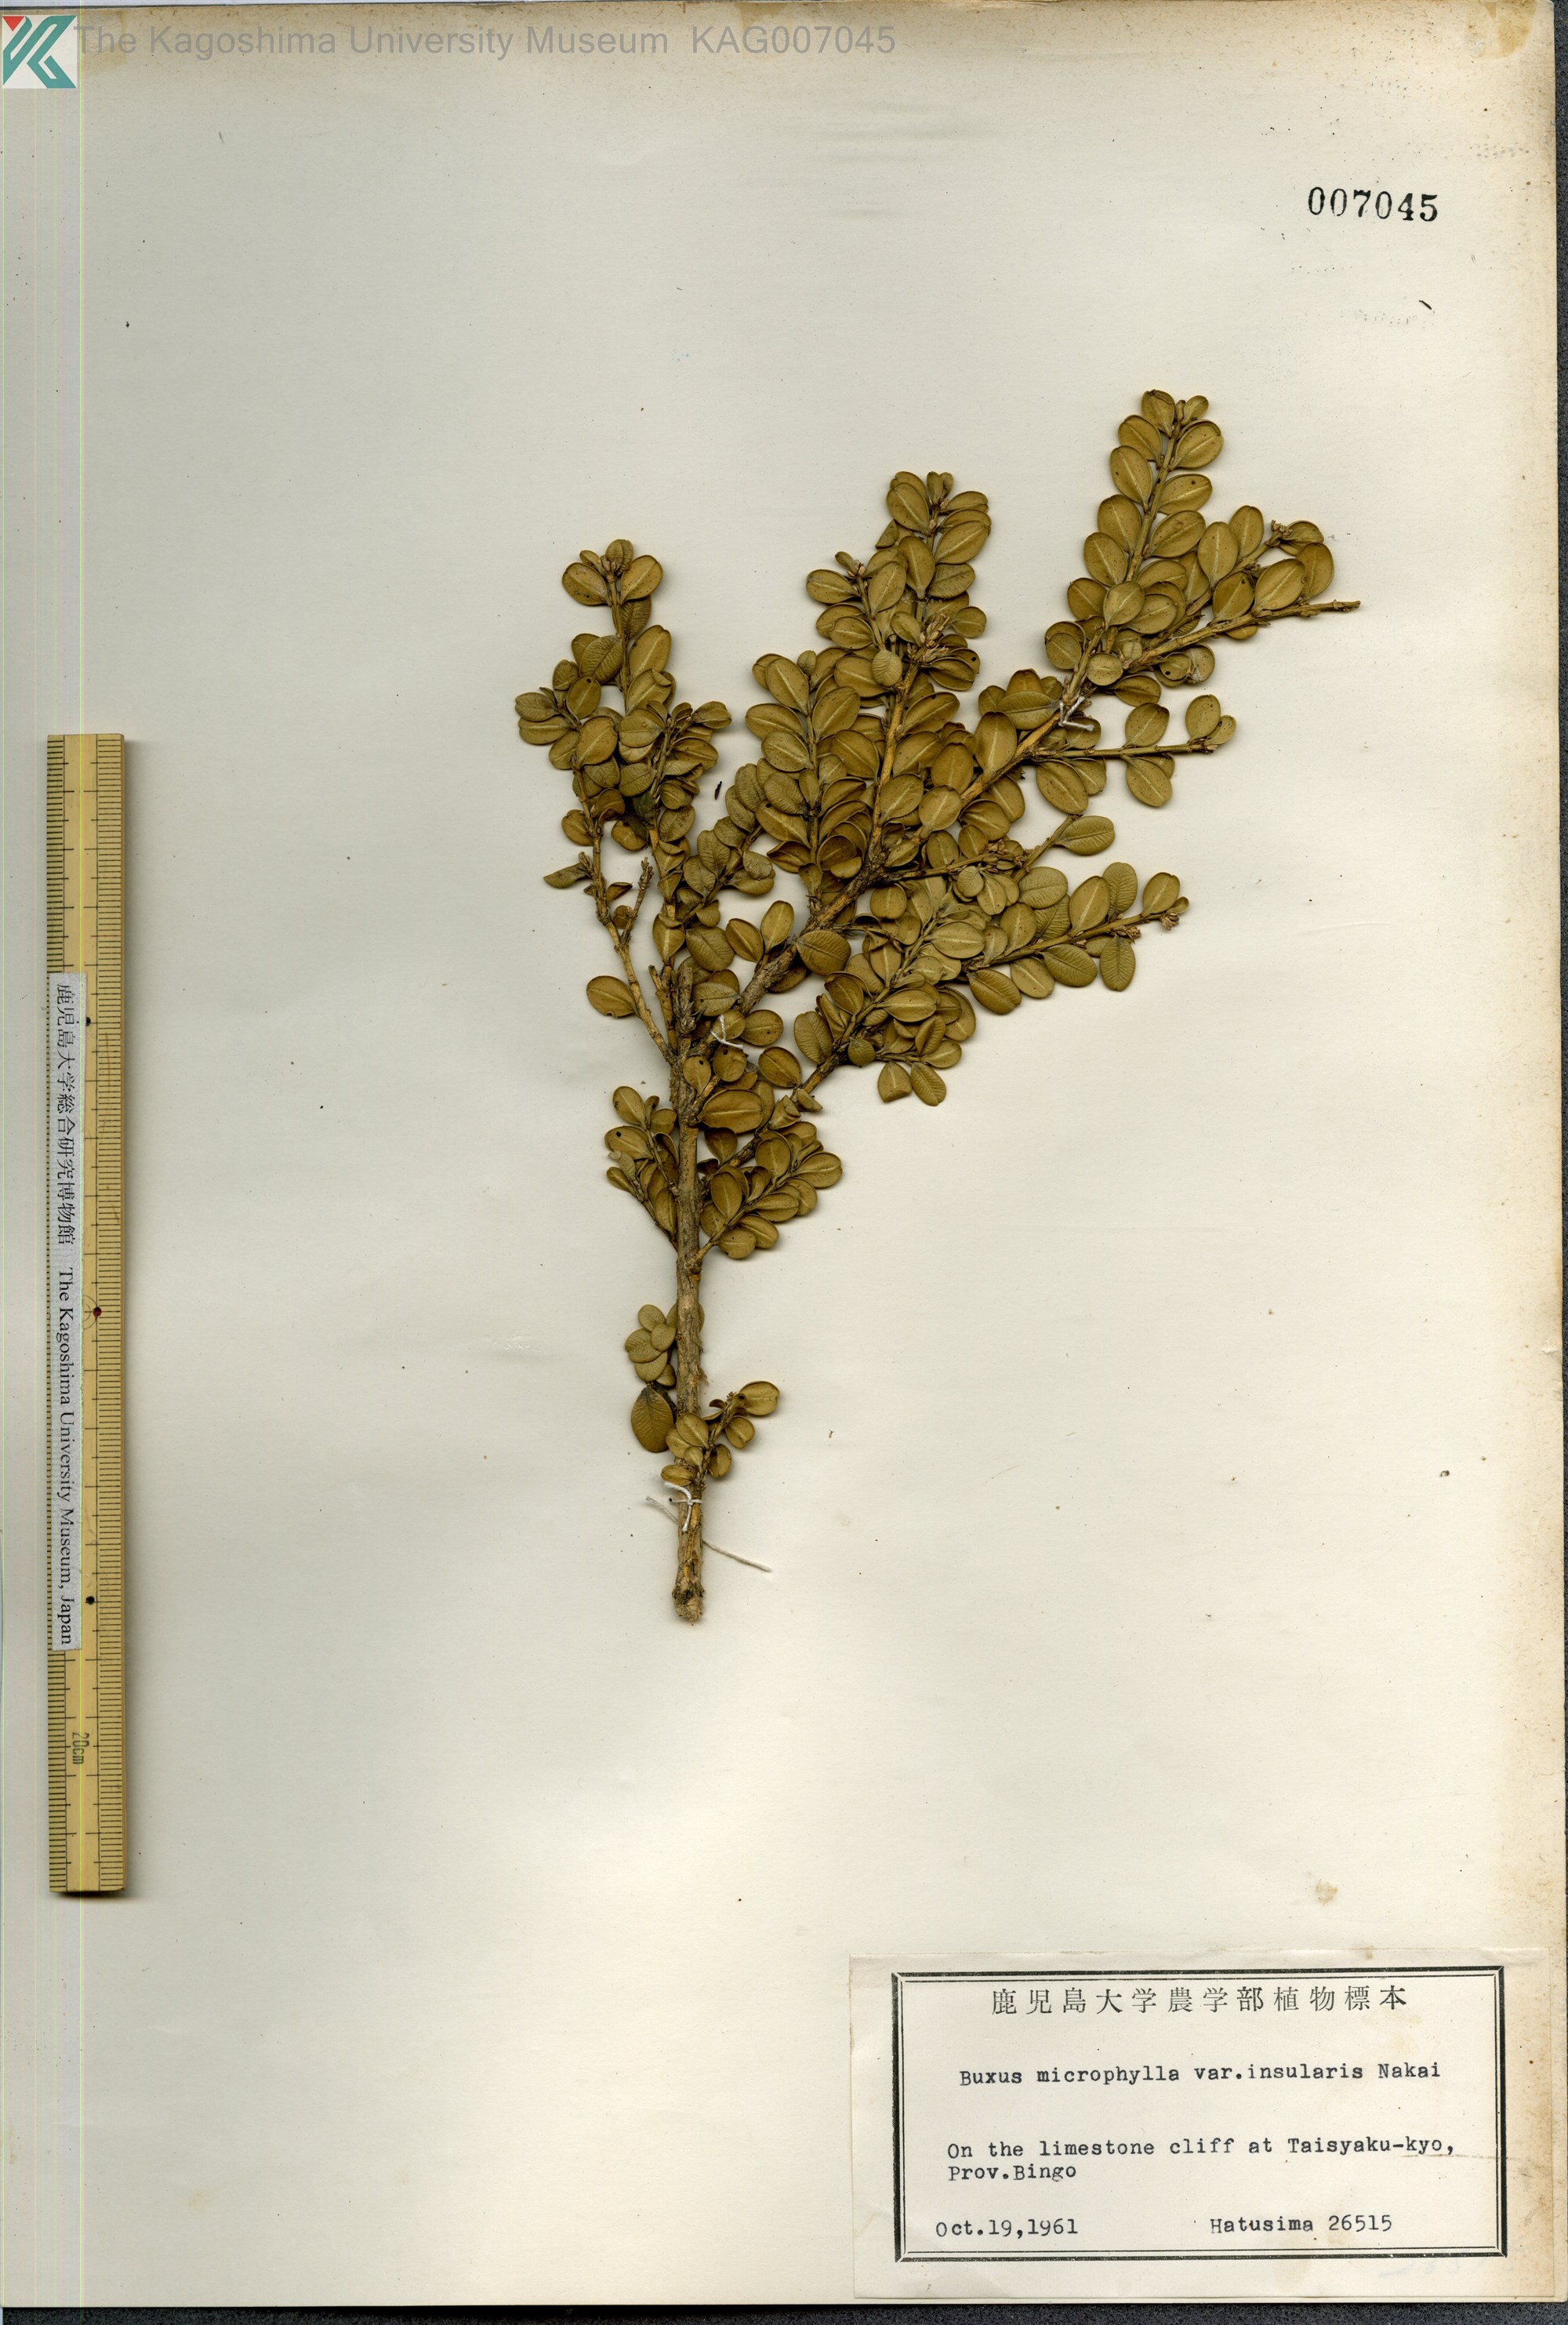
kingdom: Plantae
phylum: Tracheophyta
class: Magnoliopsida
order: Buxales
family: Buxaceae
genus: Buxus
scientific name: Buxus sinica
